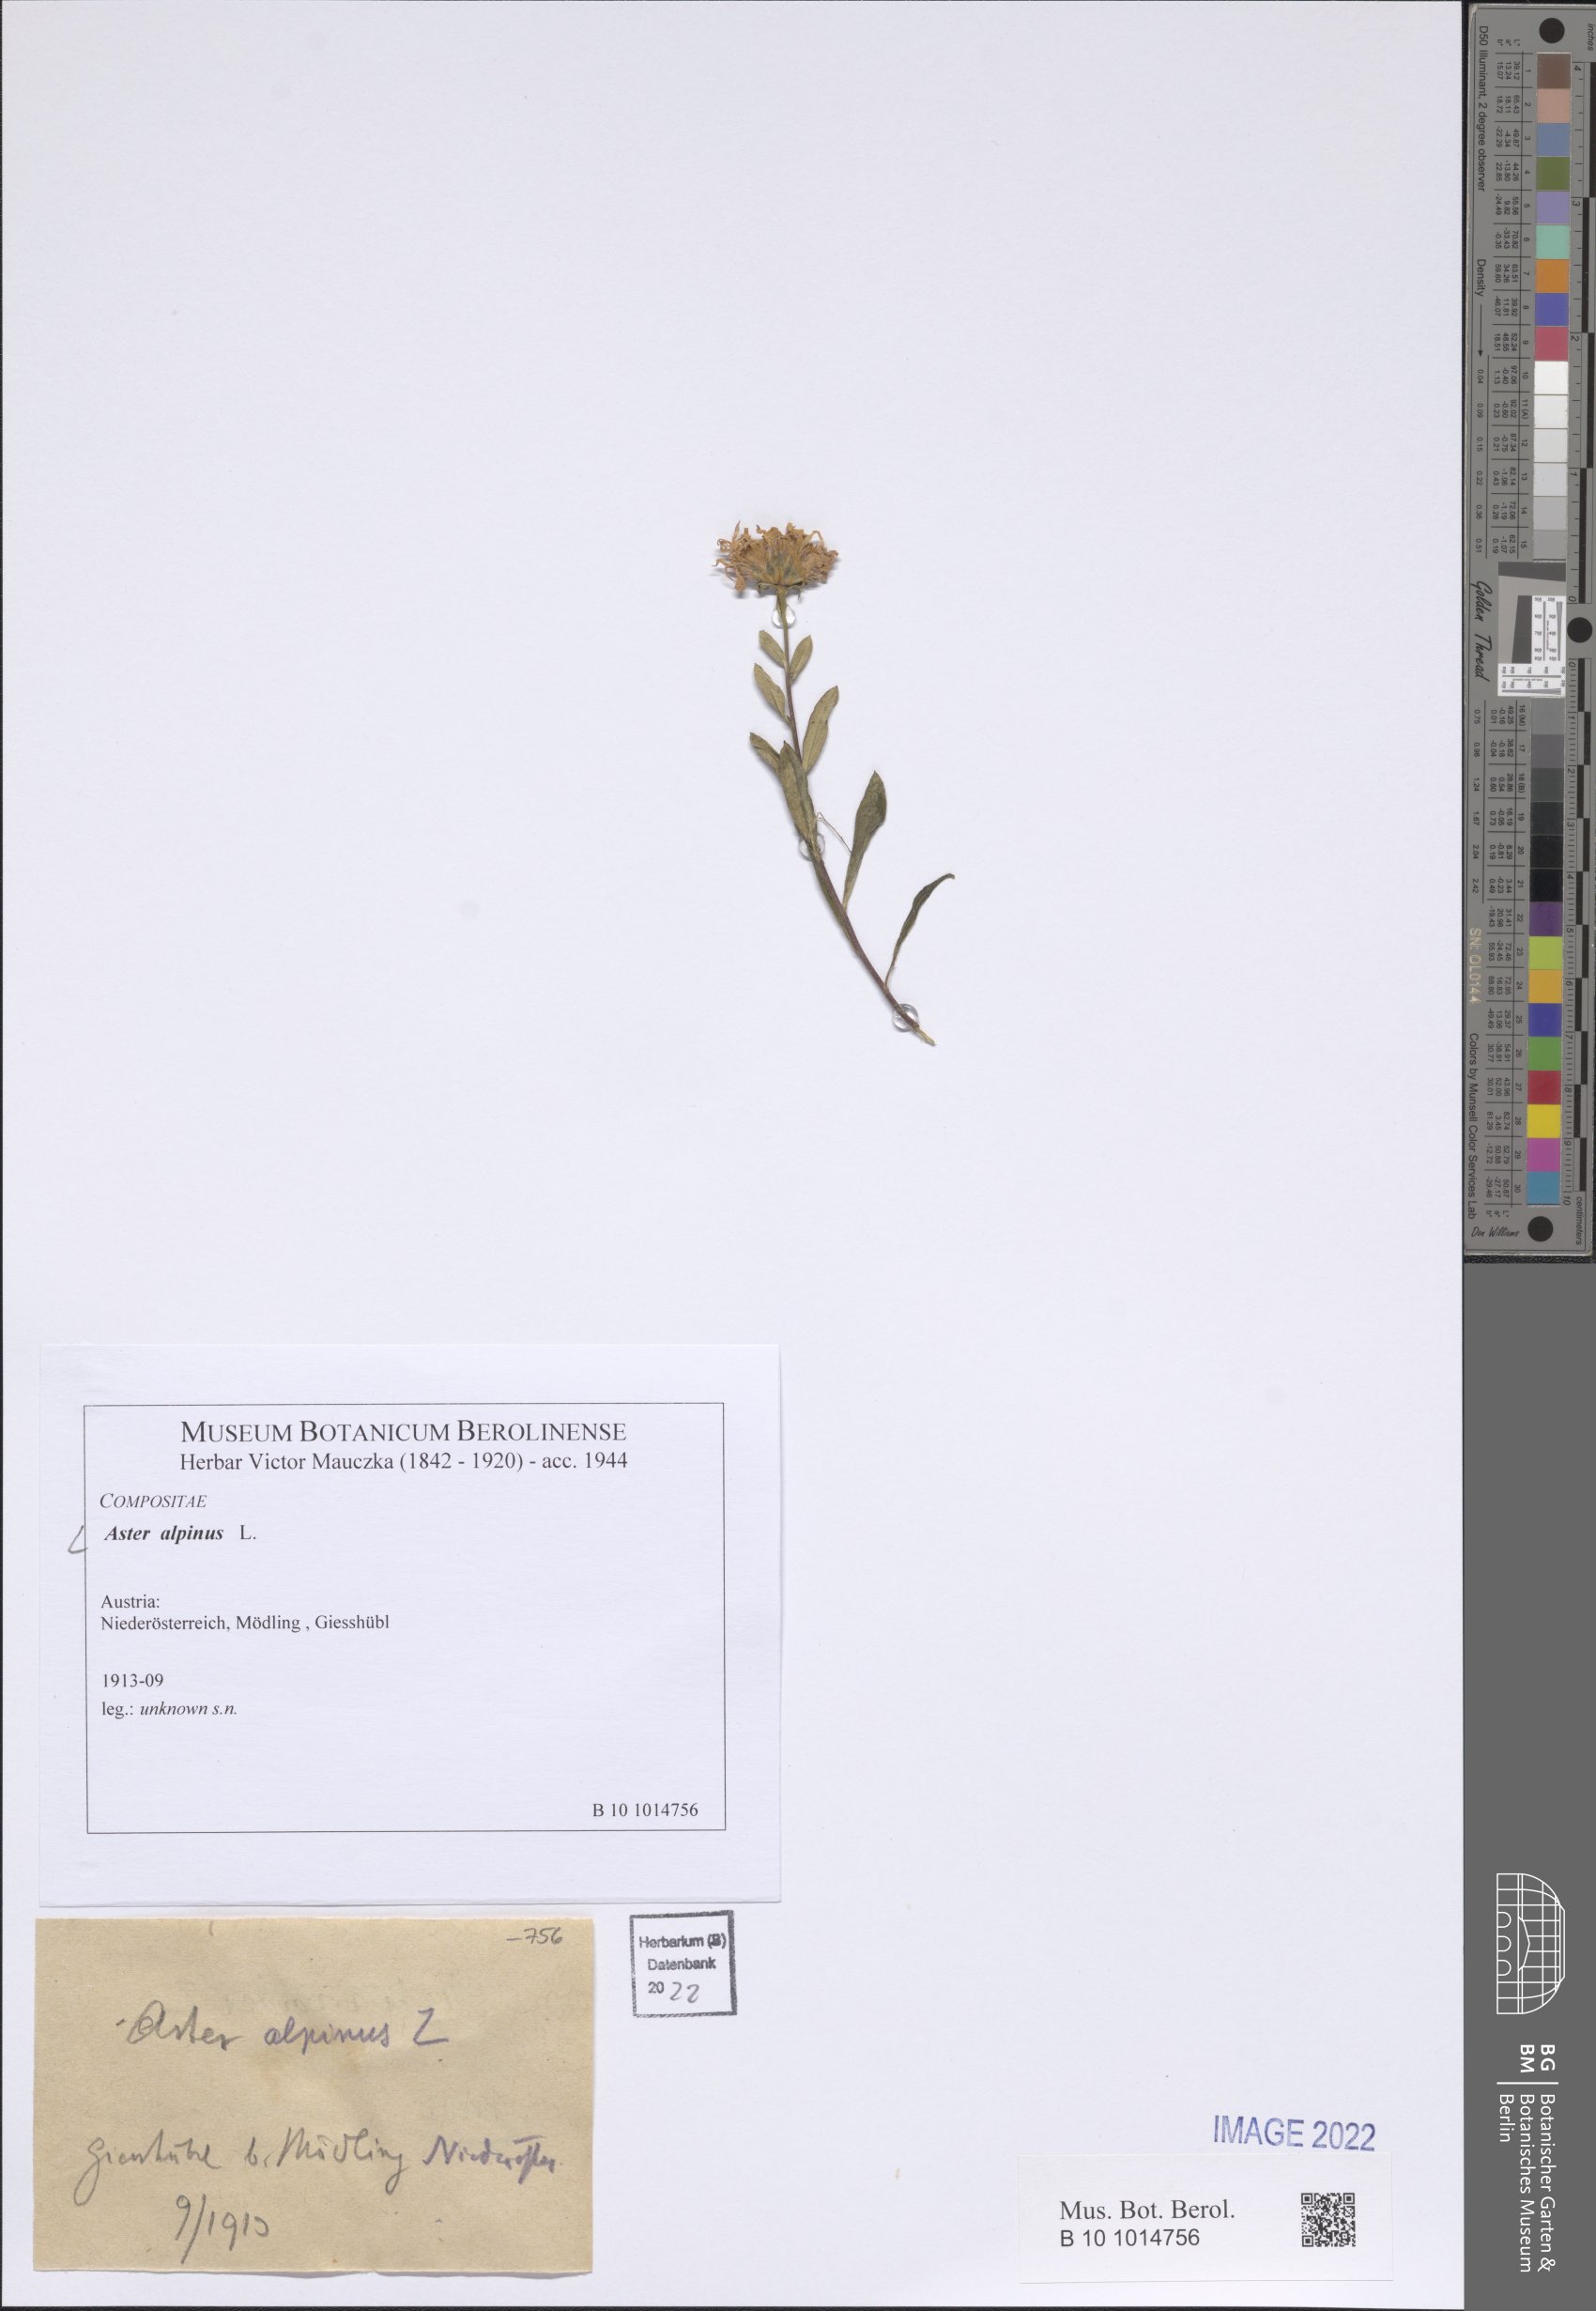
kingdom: Plantae
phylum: Tracheophyta
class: Magnoliopsida
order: Asterales
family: Asteraceae
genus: Aster
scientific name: Aster alpinus
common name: Alpine aster
